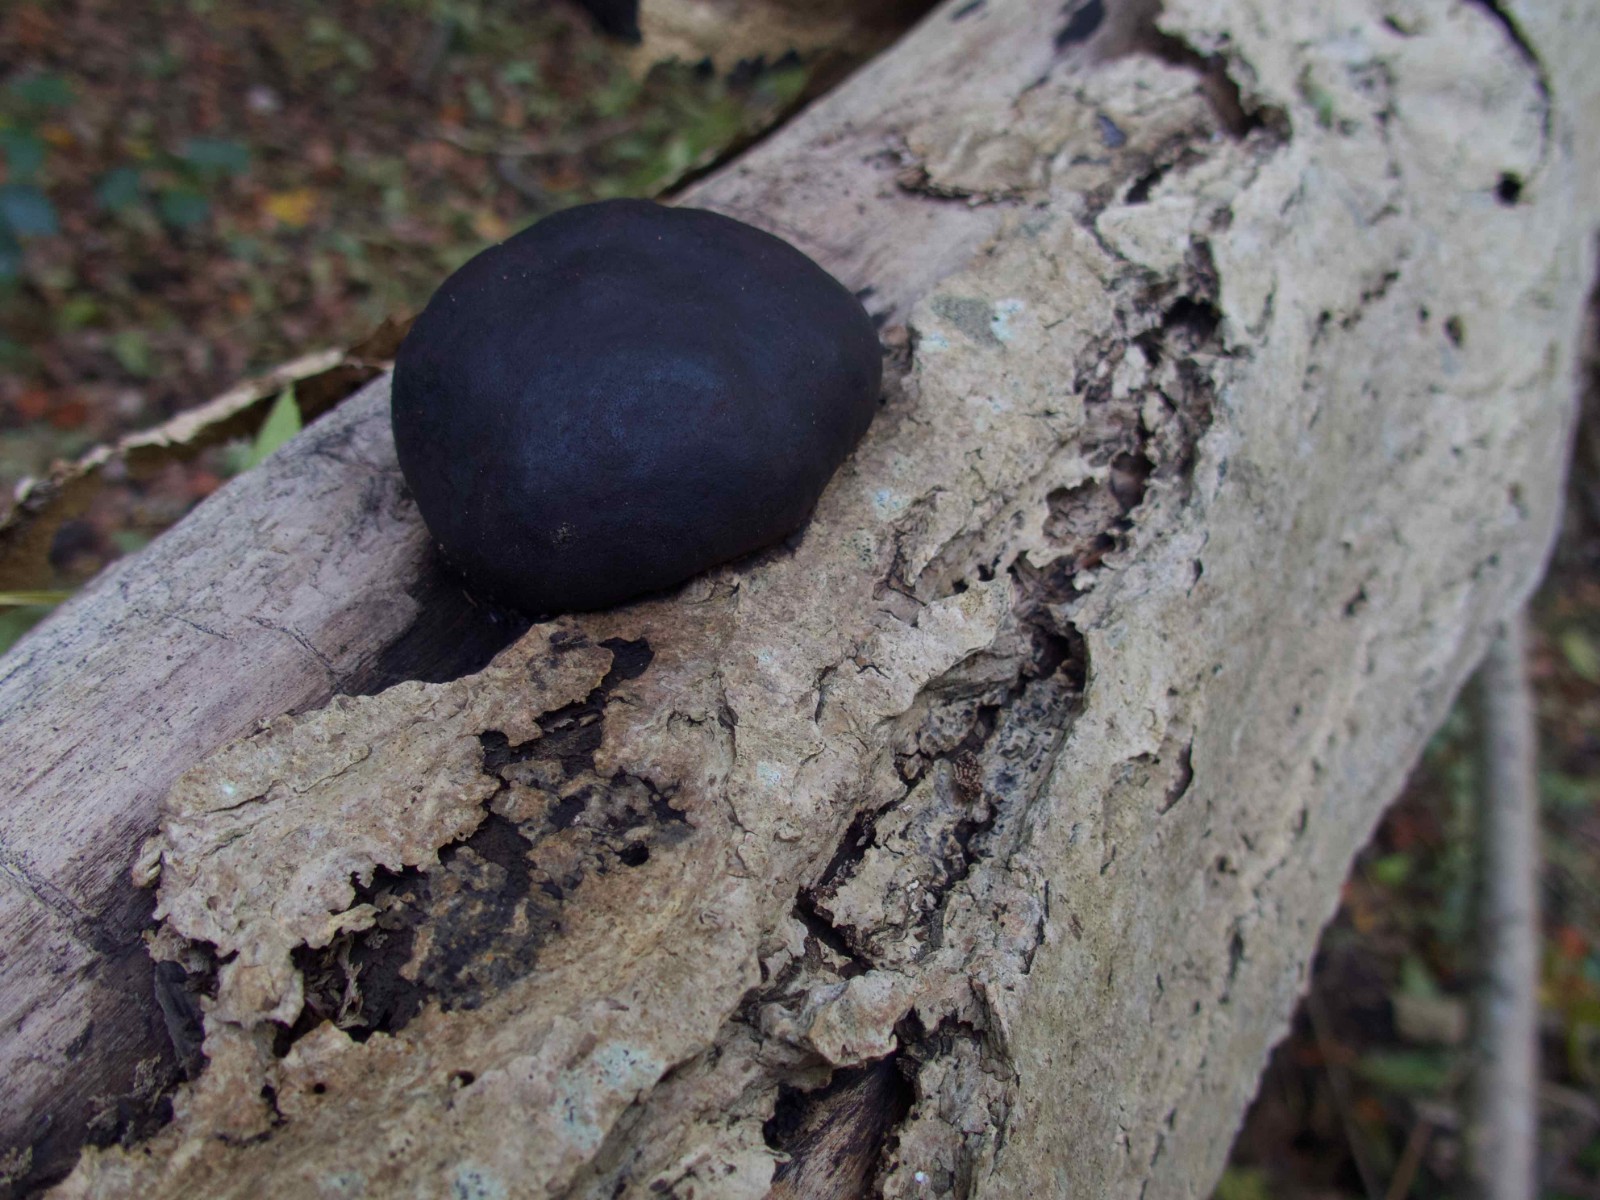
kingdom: Fungi
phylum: Ascomycota
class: Sordariomycetes
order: Xylariales
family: Hypoxylaceae
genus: Daldinia
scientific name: Daldinia concentrica
